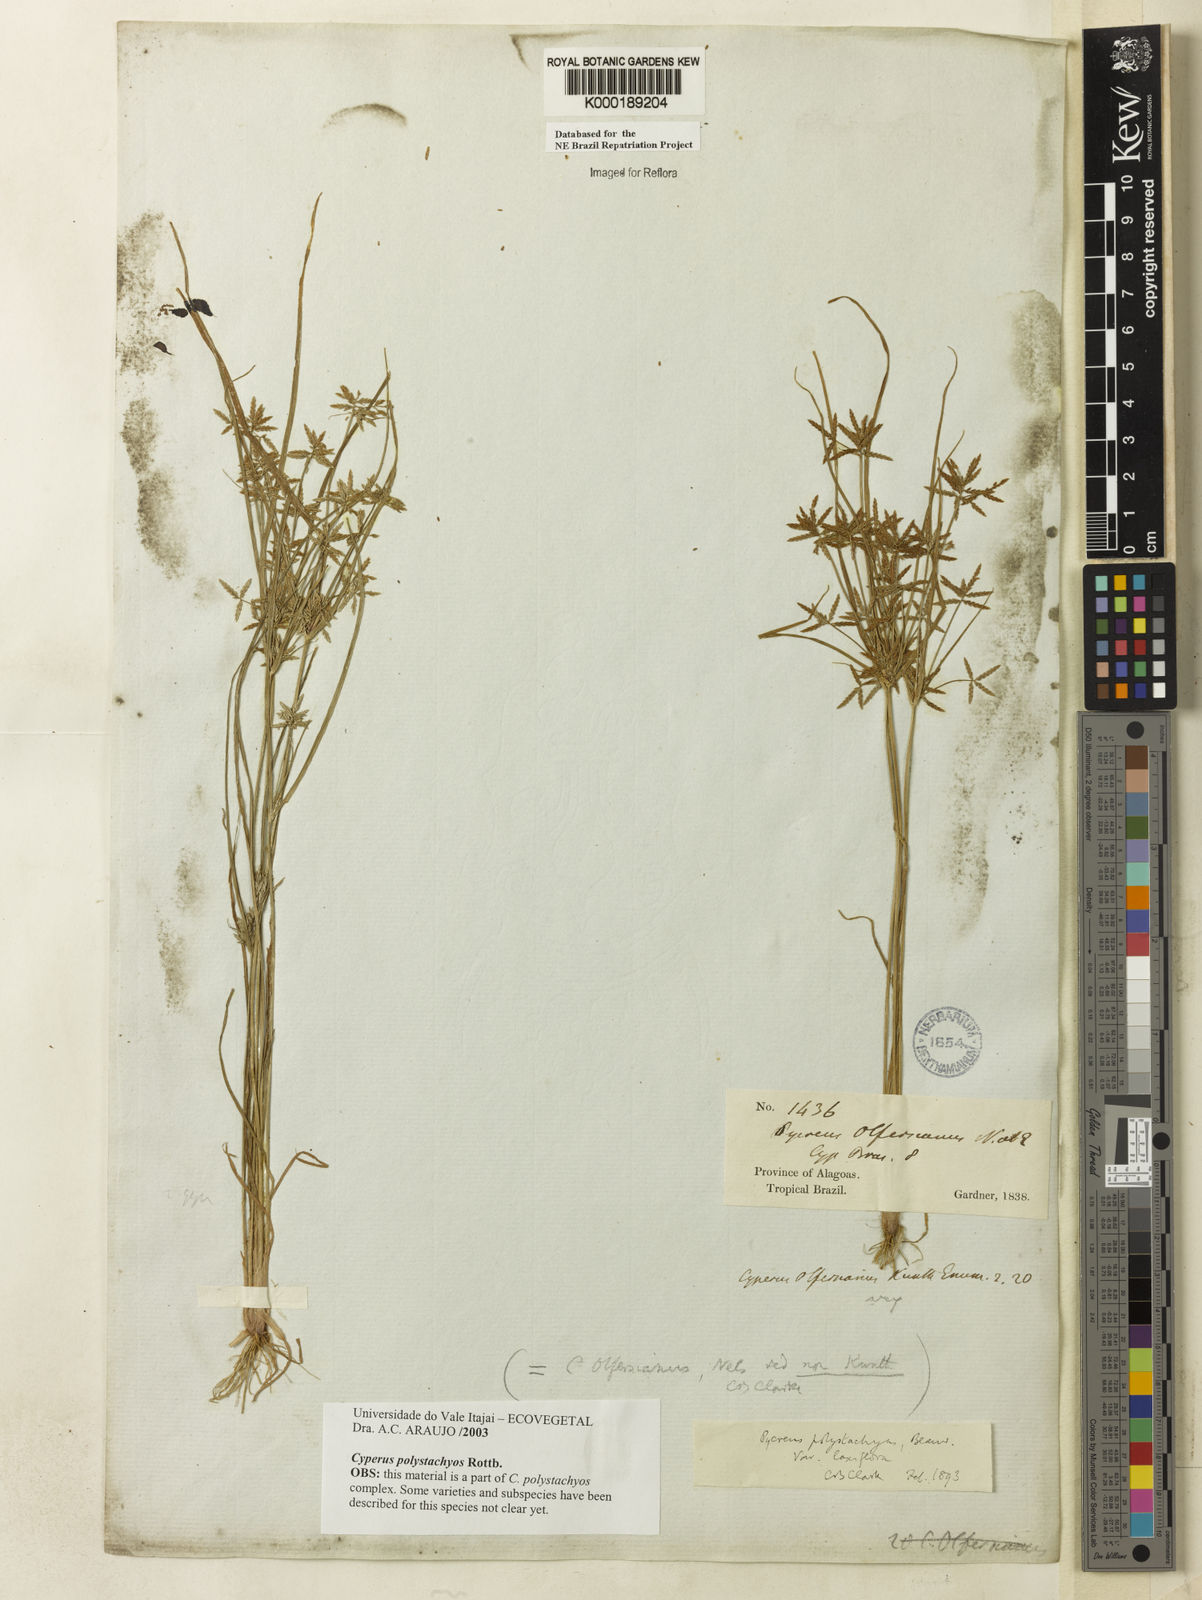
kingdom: Plantae
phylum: Tracheophyta
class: Liliopsida
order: Poales
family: Cyperaceae
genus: Cyperus
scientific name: Cyperus polystachyos
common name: Bunchy flat sedge
